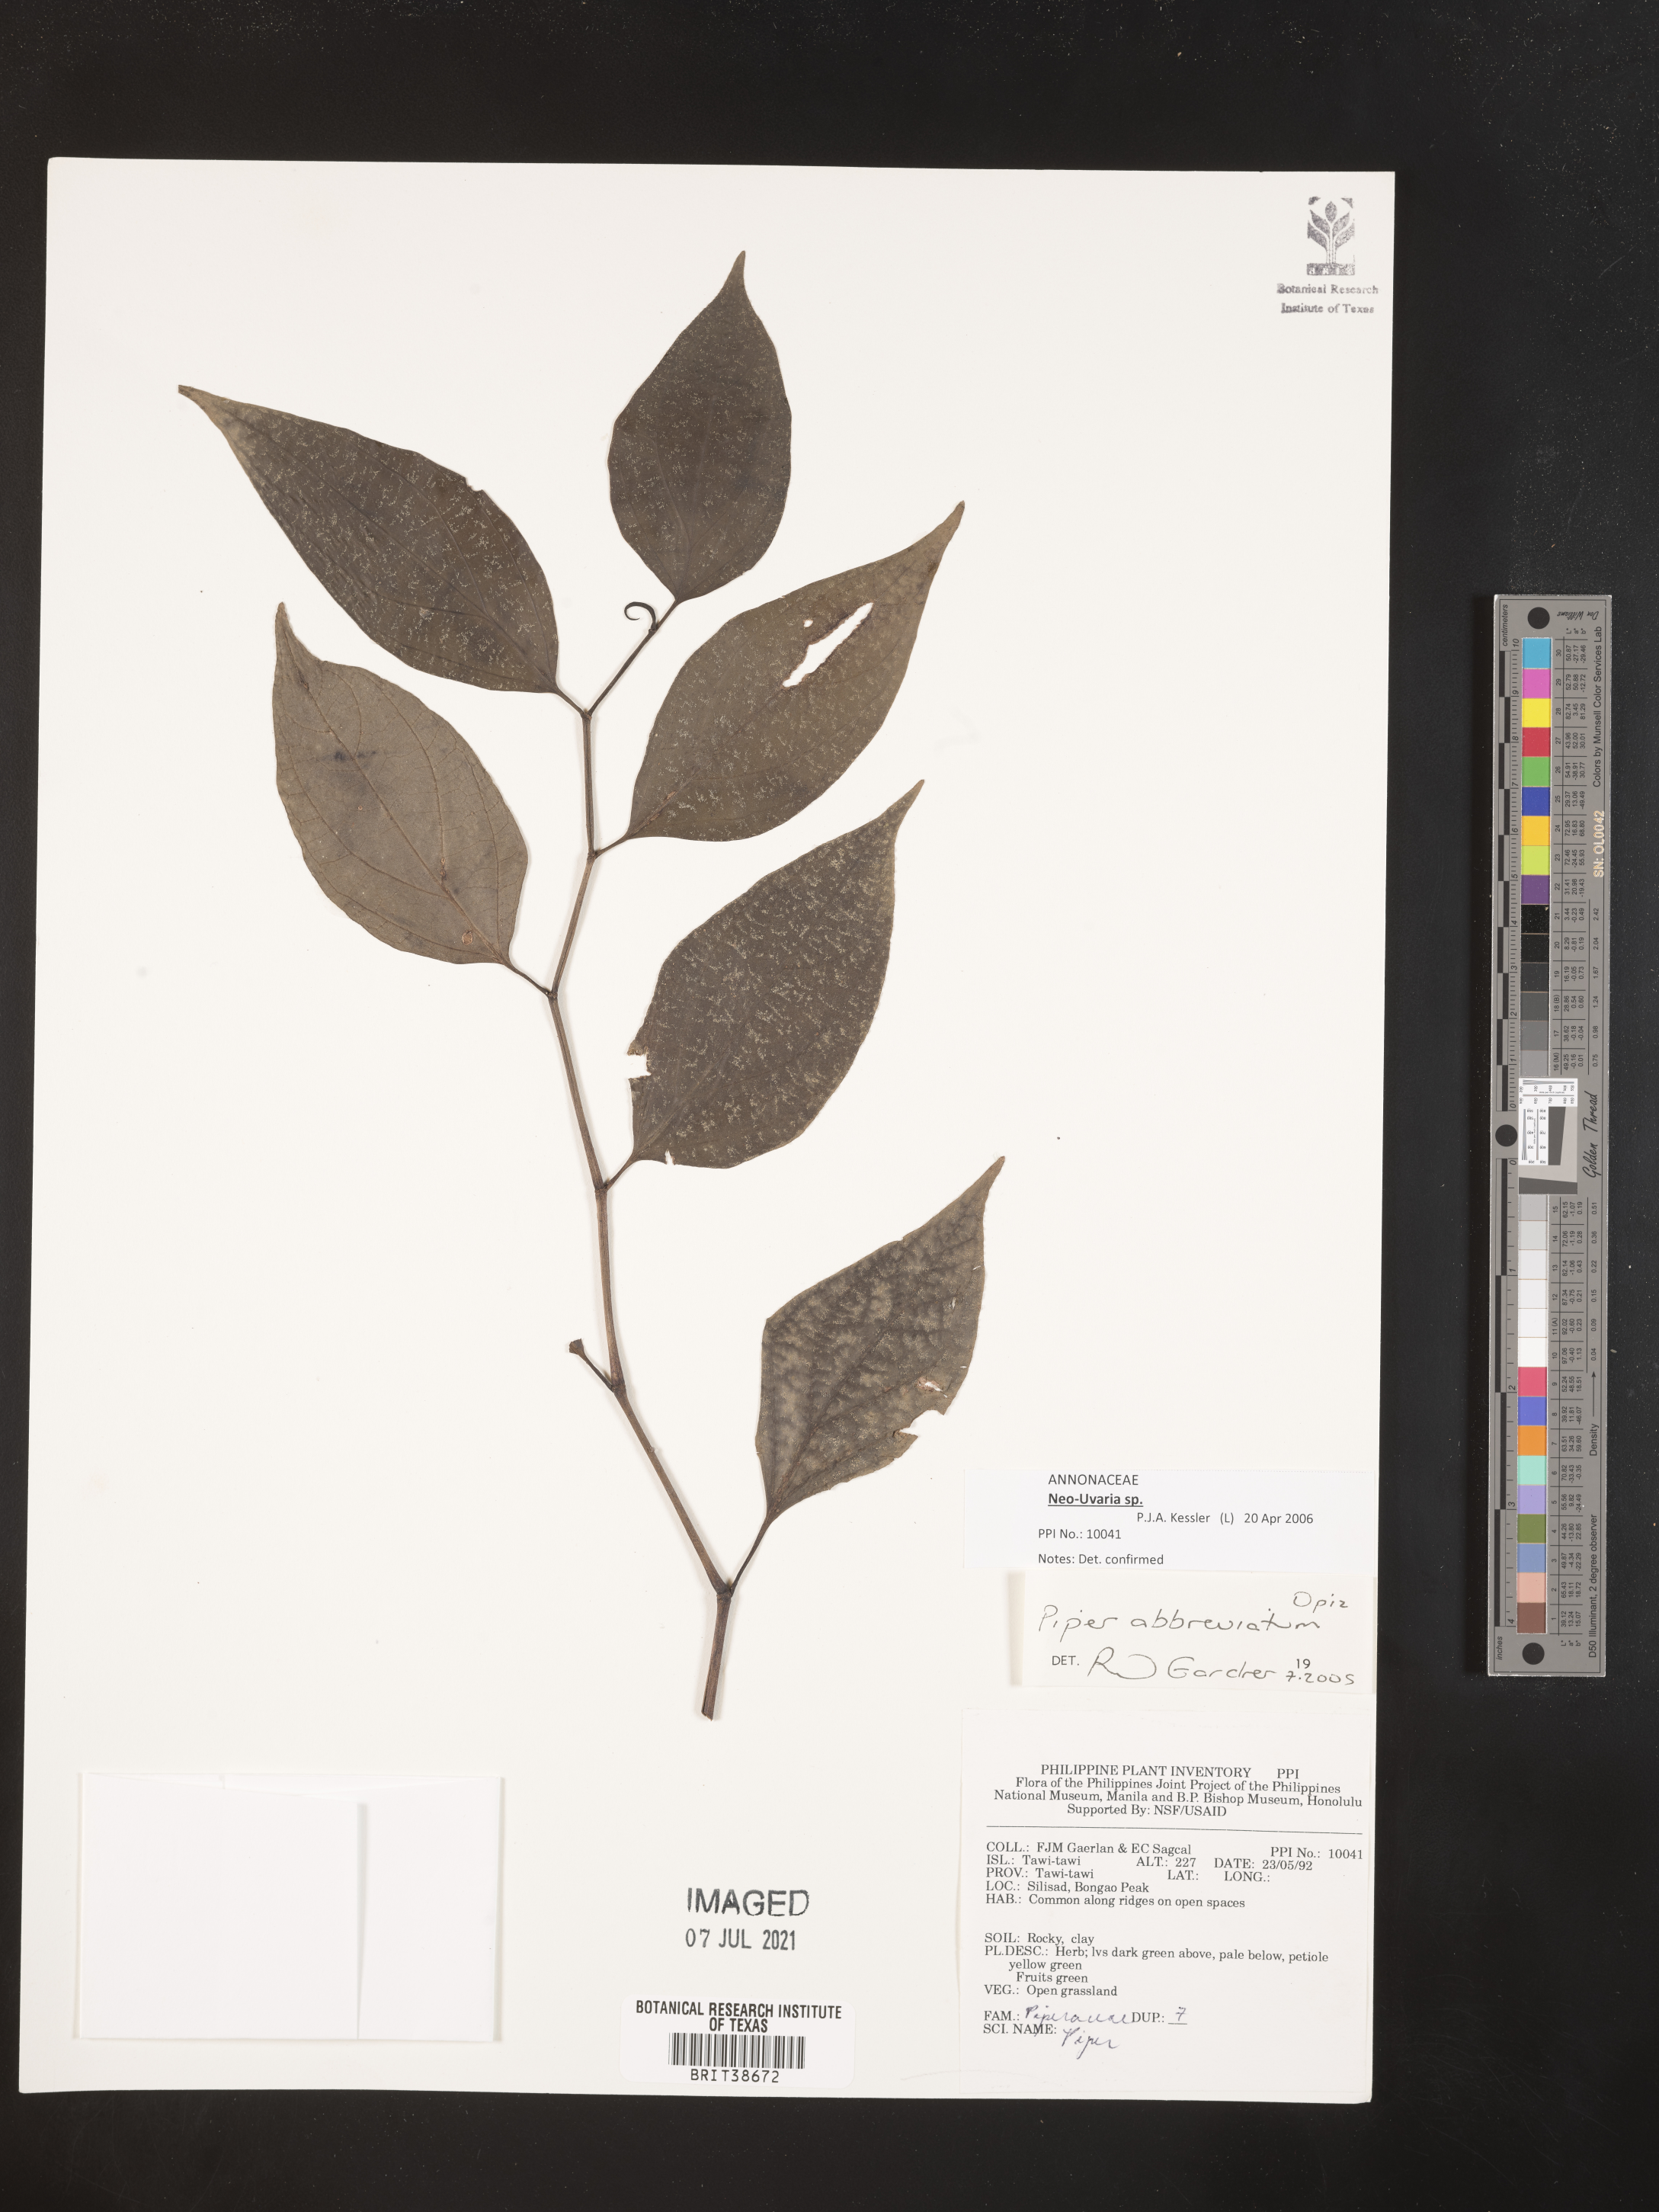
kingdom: Plantae
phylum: Tracheophyta
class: Magnoliopsida
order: Piperales
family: Piperaceae
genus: Piper
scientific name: Piper abbreviatum
